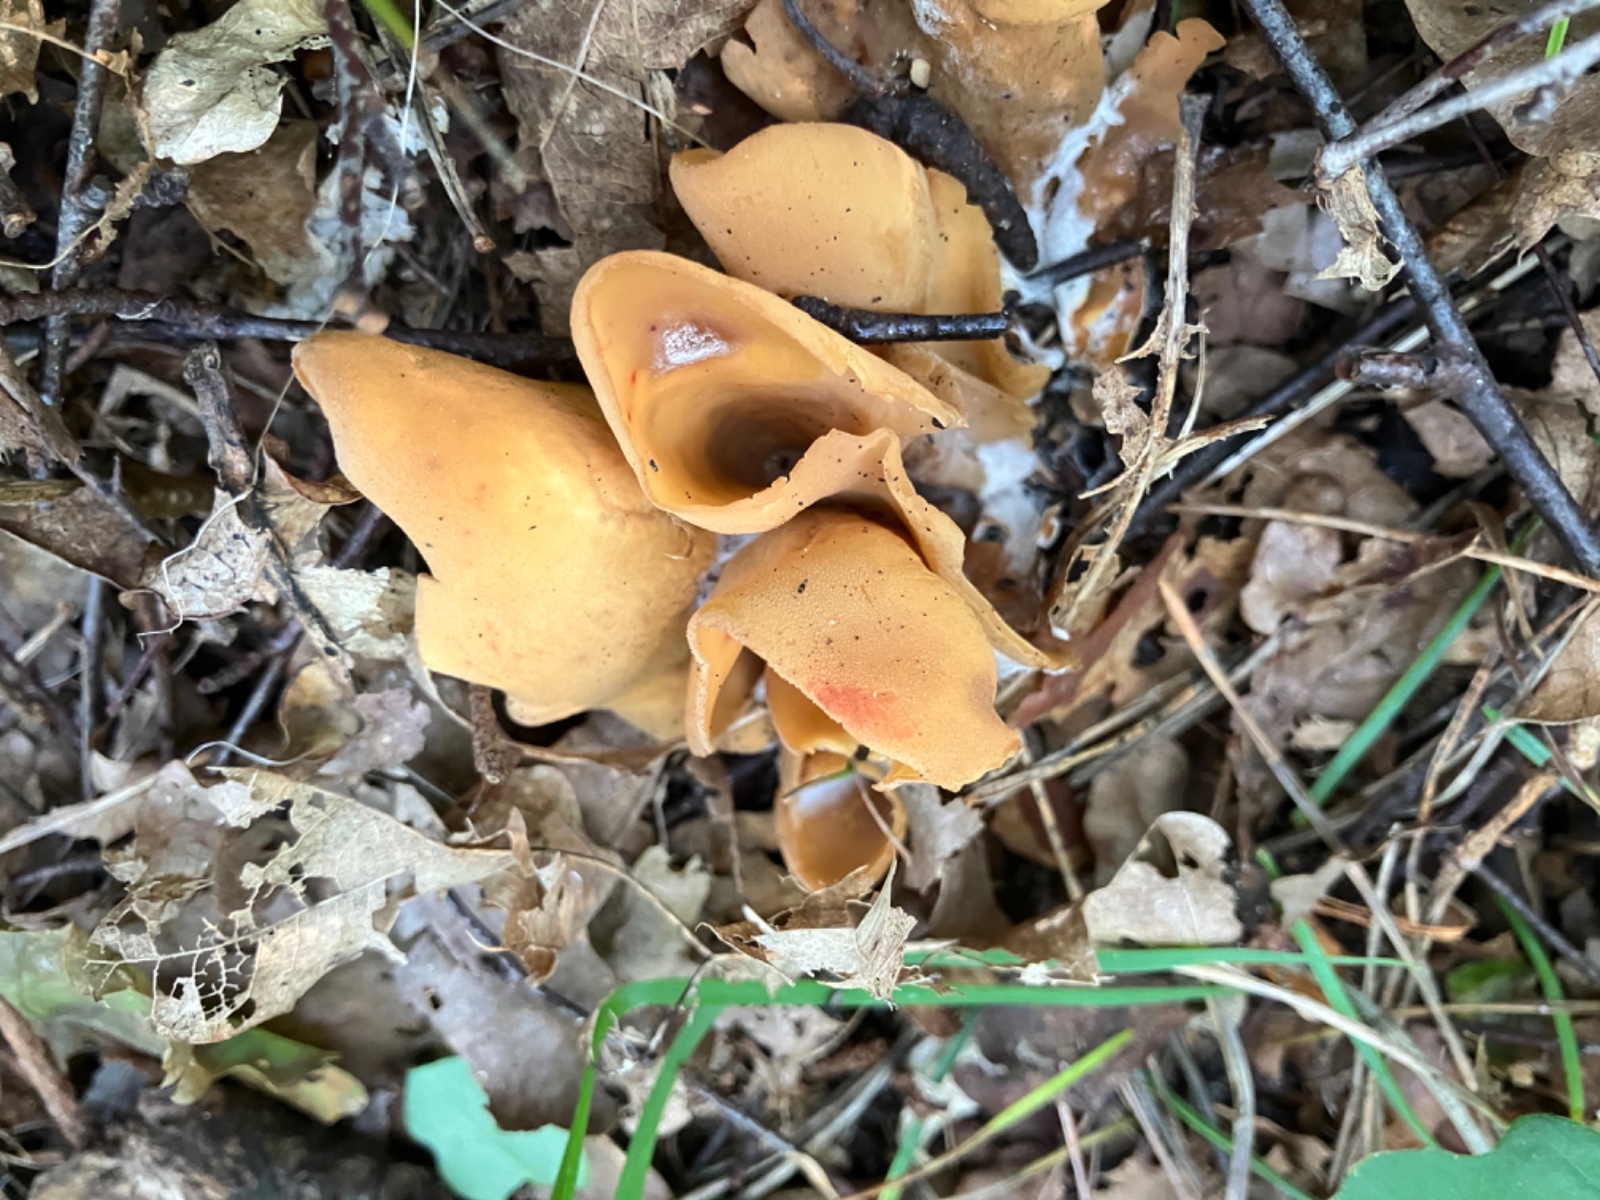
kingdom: Fungi
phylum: Ascomycota
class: Pezizomycetes
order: Pezizales
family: Otideaceae
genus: Otidea
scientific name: Otidea onotica
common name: æsel-ørebæger
